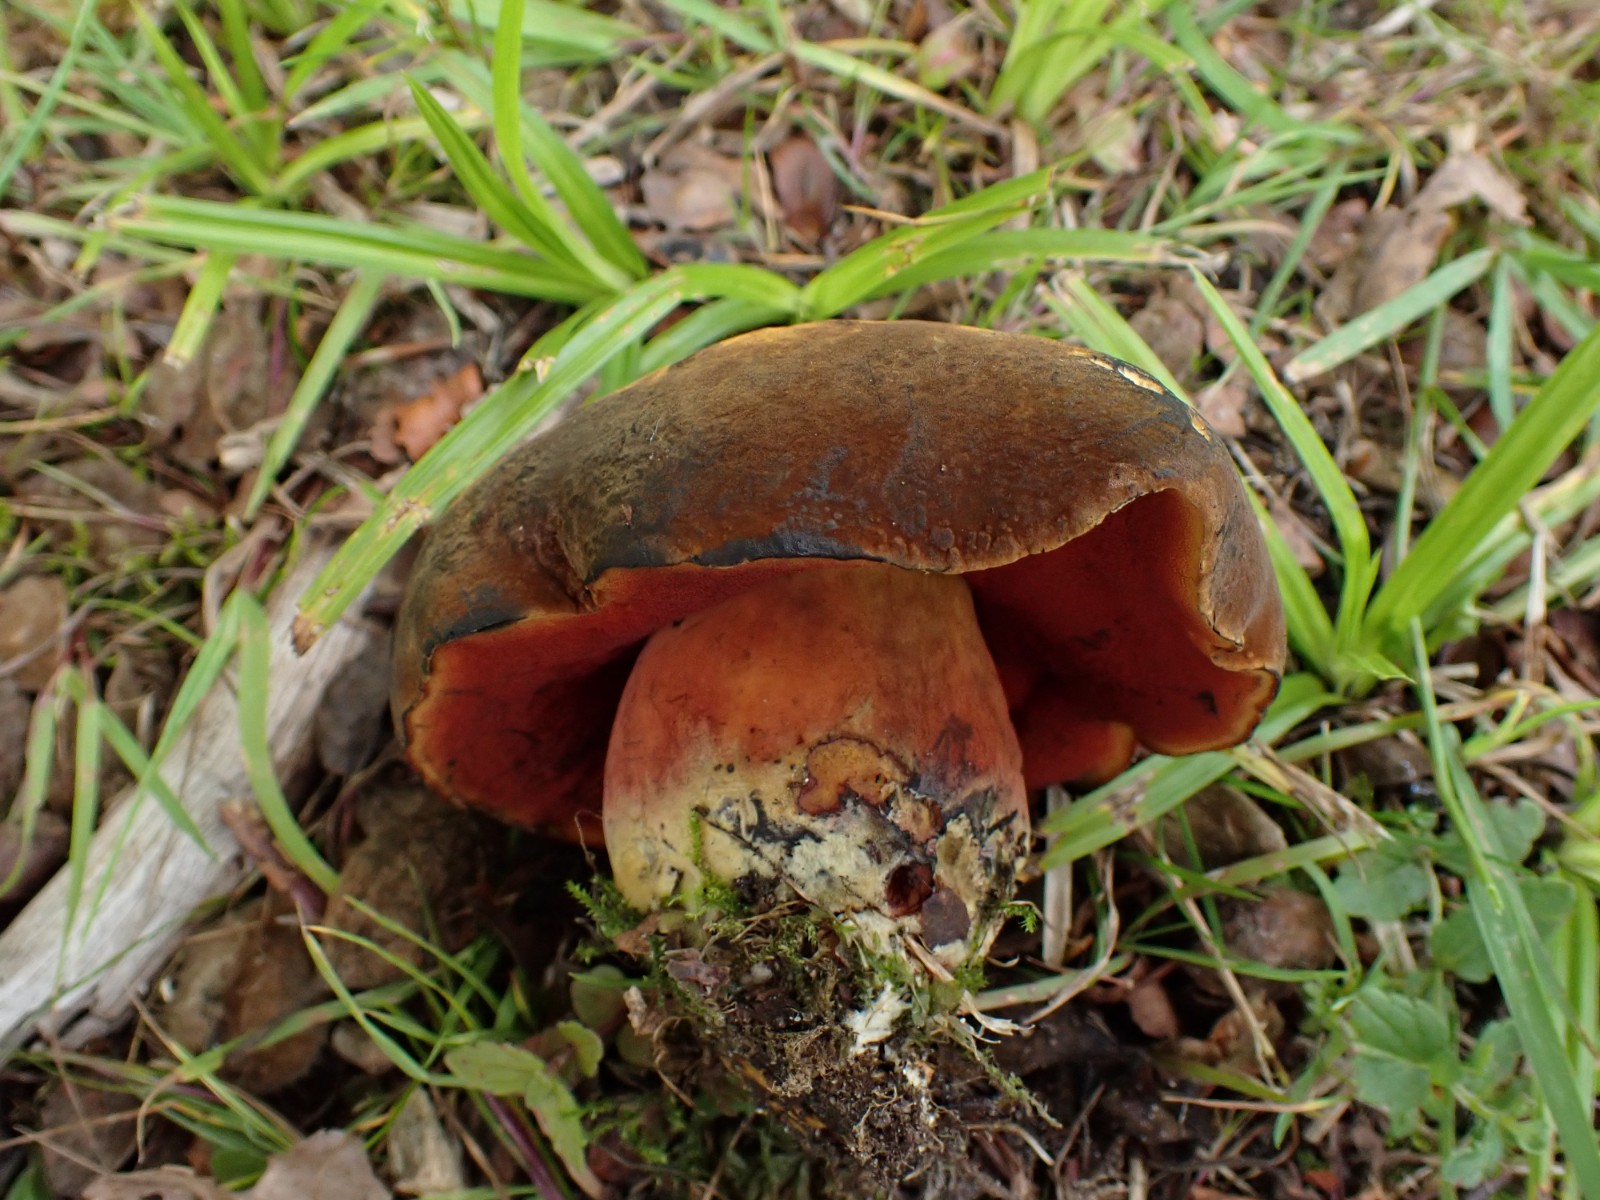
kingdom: Fungi
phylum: Basidiomycota
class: Agaricomycetes
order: Boletales
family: Boletaceae
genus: Neoboletus
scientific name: Neoboletus xanthopus
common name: finprikket indigorørhat
